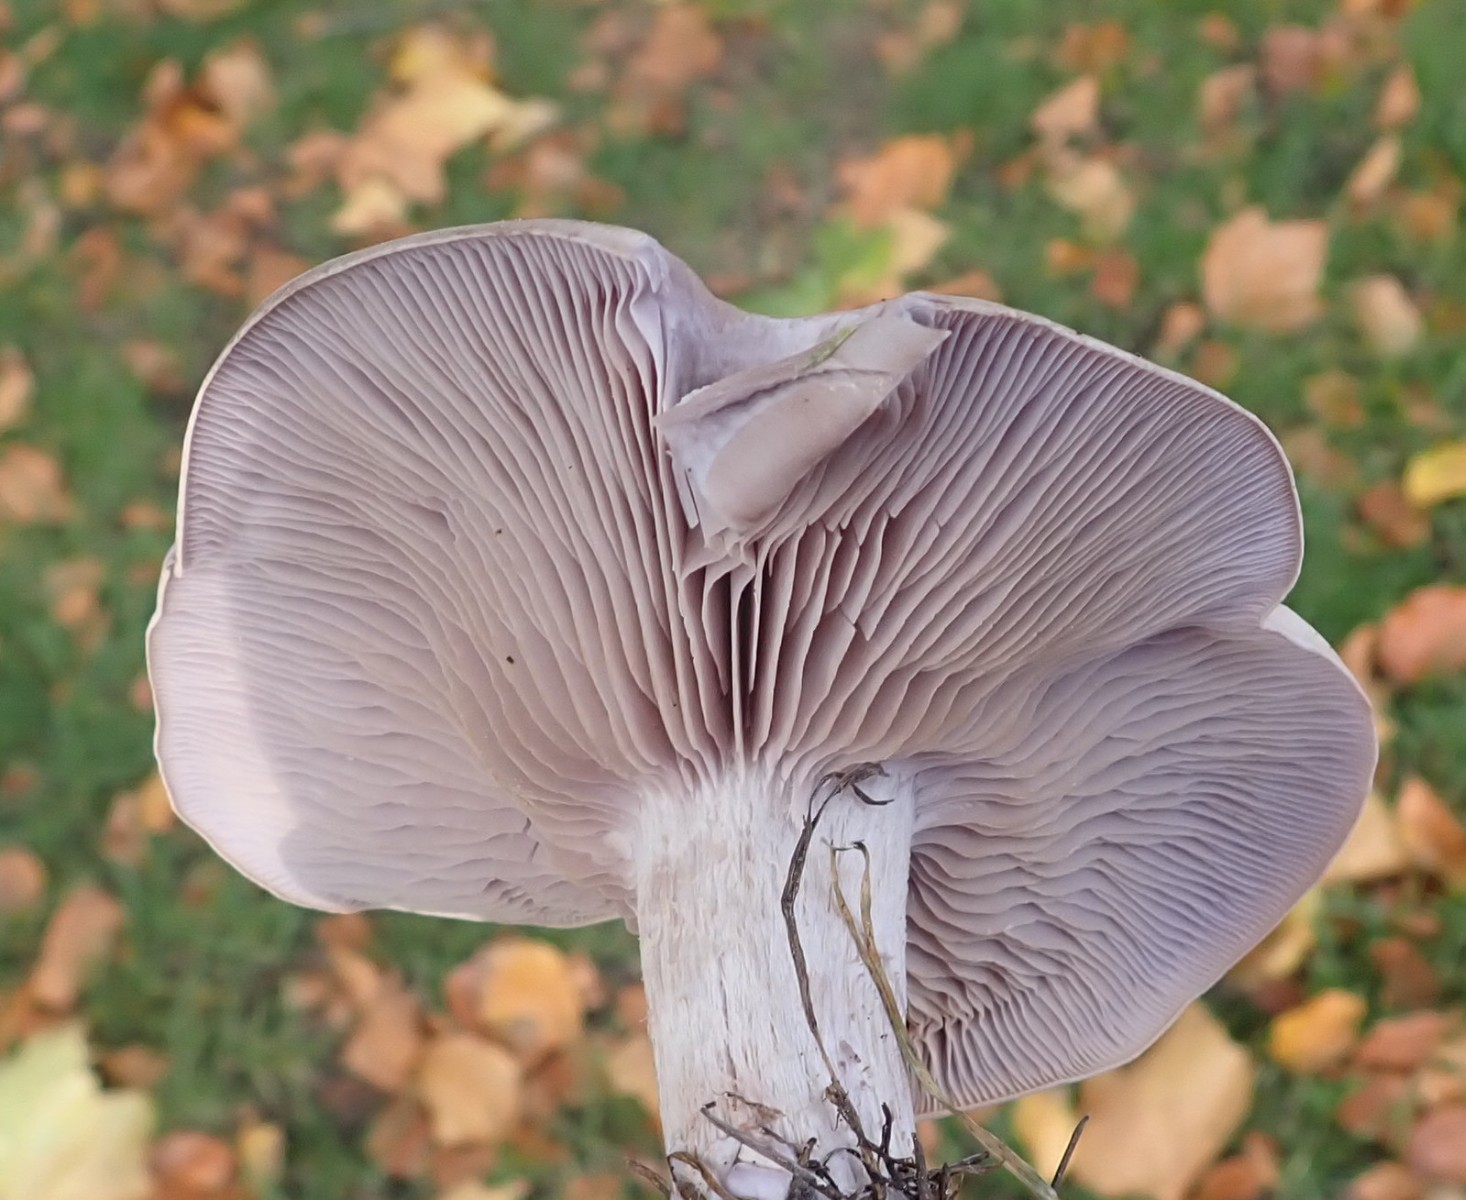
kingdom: Fungi
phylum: Basidiomycota
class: Agaricomycetes
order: Agaricales
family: Tricholomataceae
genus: Lepista
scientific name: Lepista nuda
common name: violet hekseringshat
